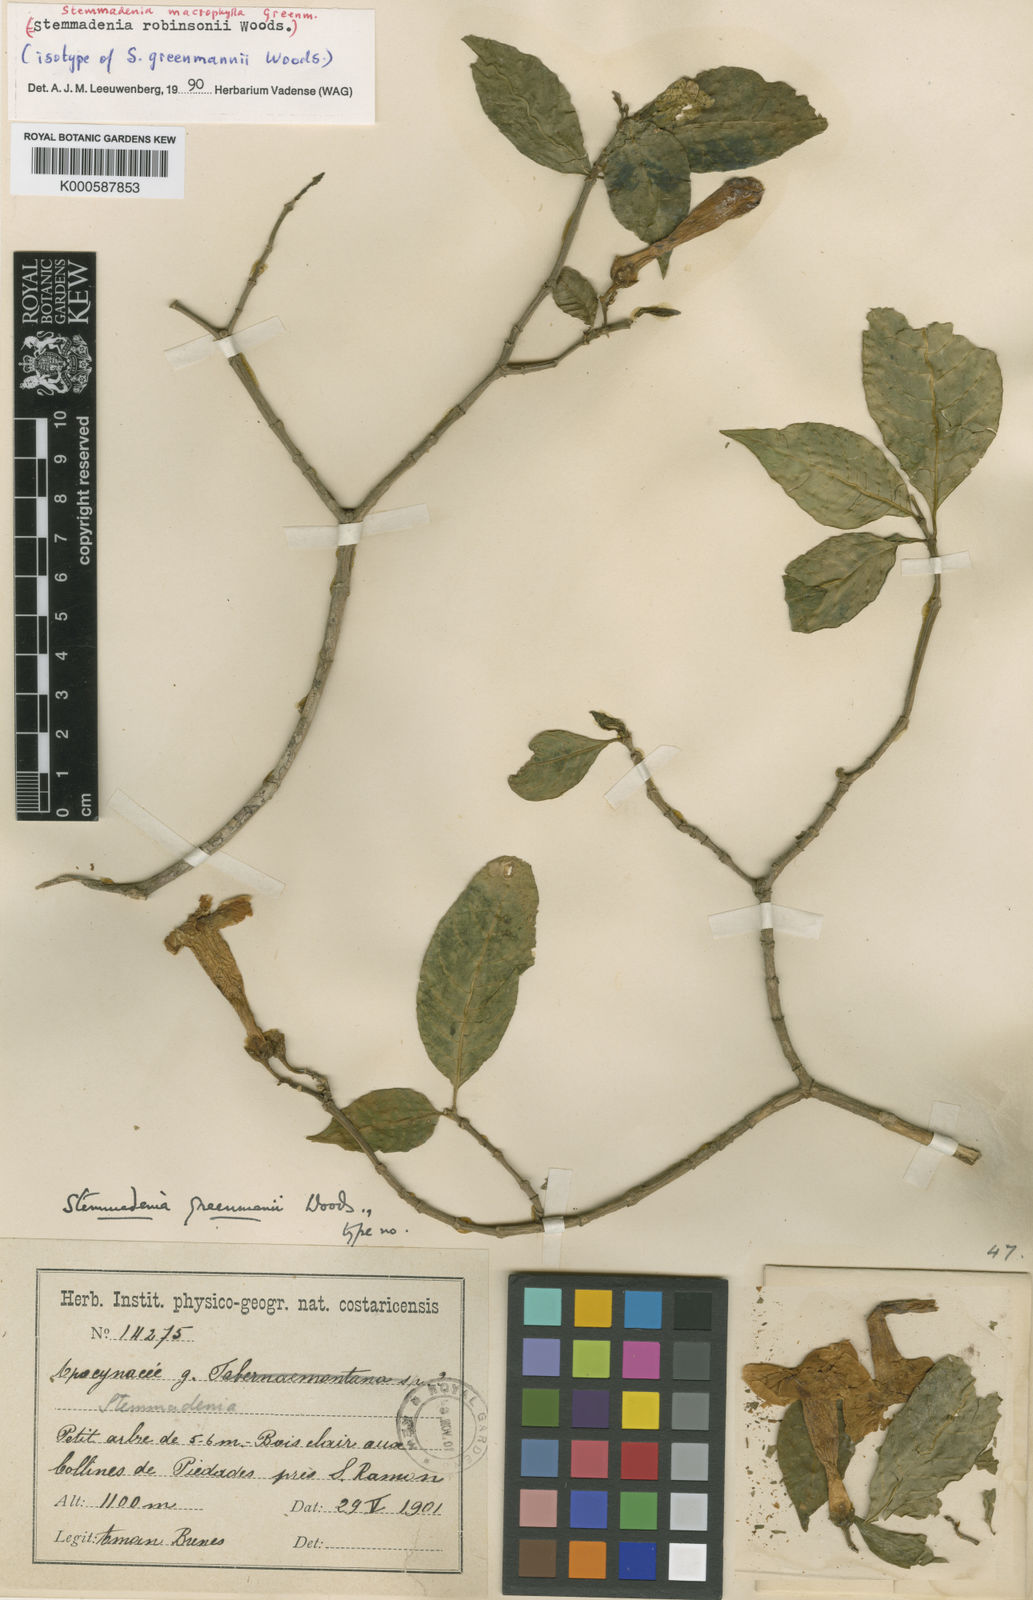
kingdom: Plantae
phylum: Tracheophyta
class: Magnoliopsida
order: Gentianales
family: Apocynaceae
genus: Tabernaemontana
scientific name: Tabernaemontana litoralis
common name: Milkwood
